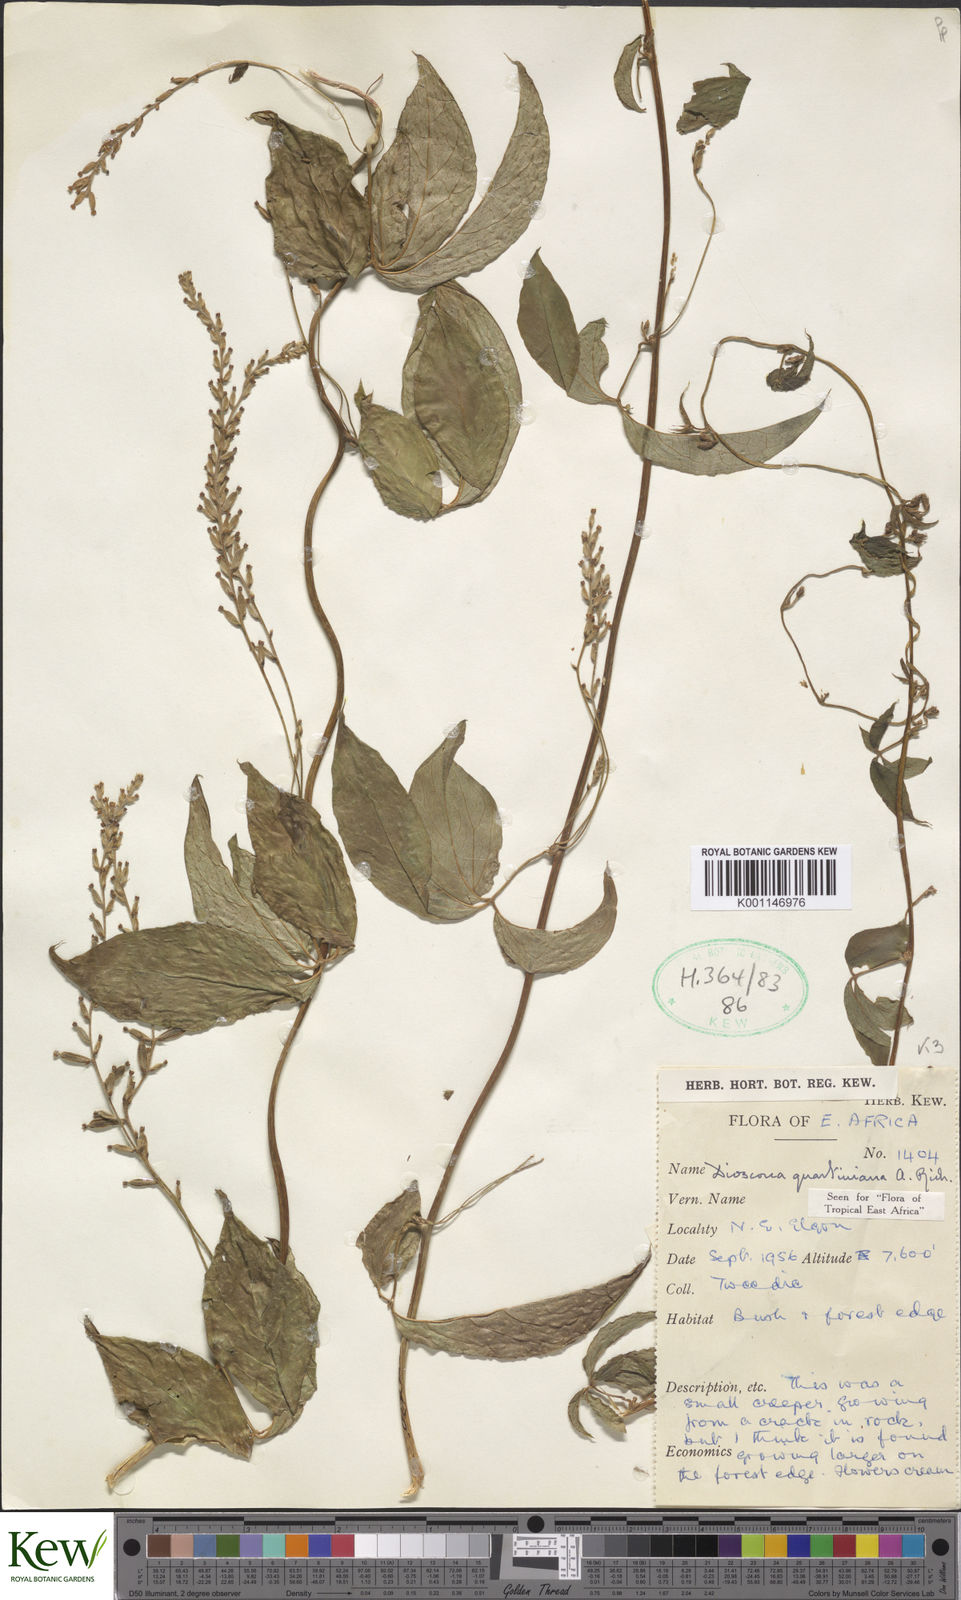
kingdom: Plantae
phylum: Tracheophyta
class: Liliopsida
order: Dioscoreales
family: Dioscoreaceae
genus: Dioscorea
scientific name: Dioscorea quartiniana
